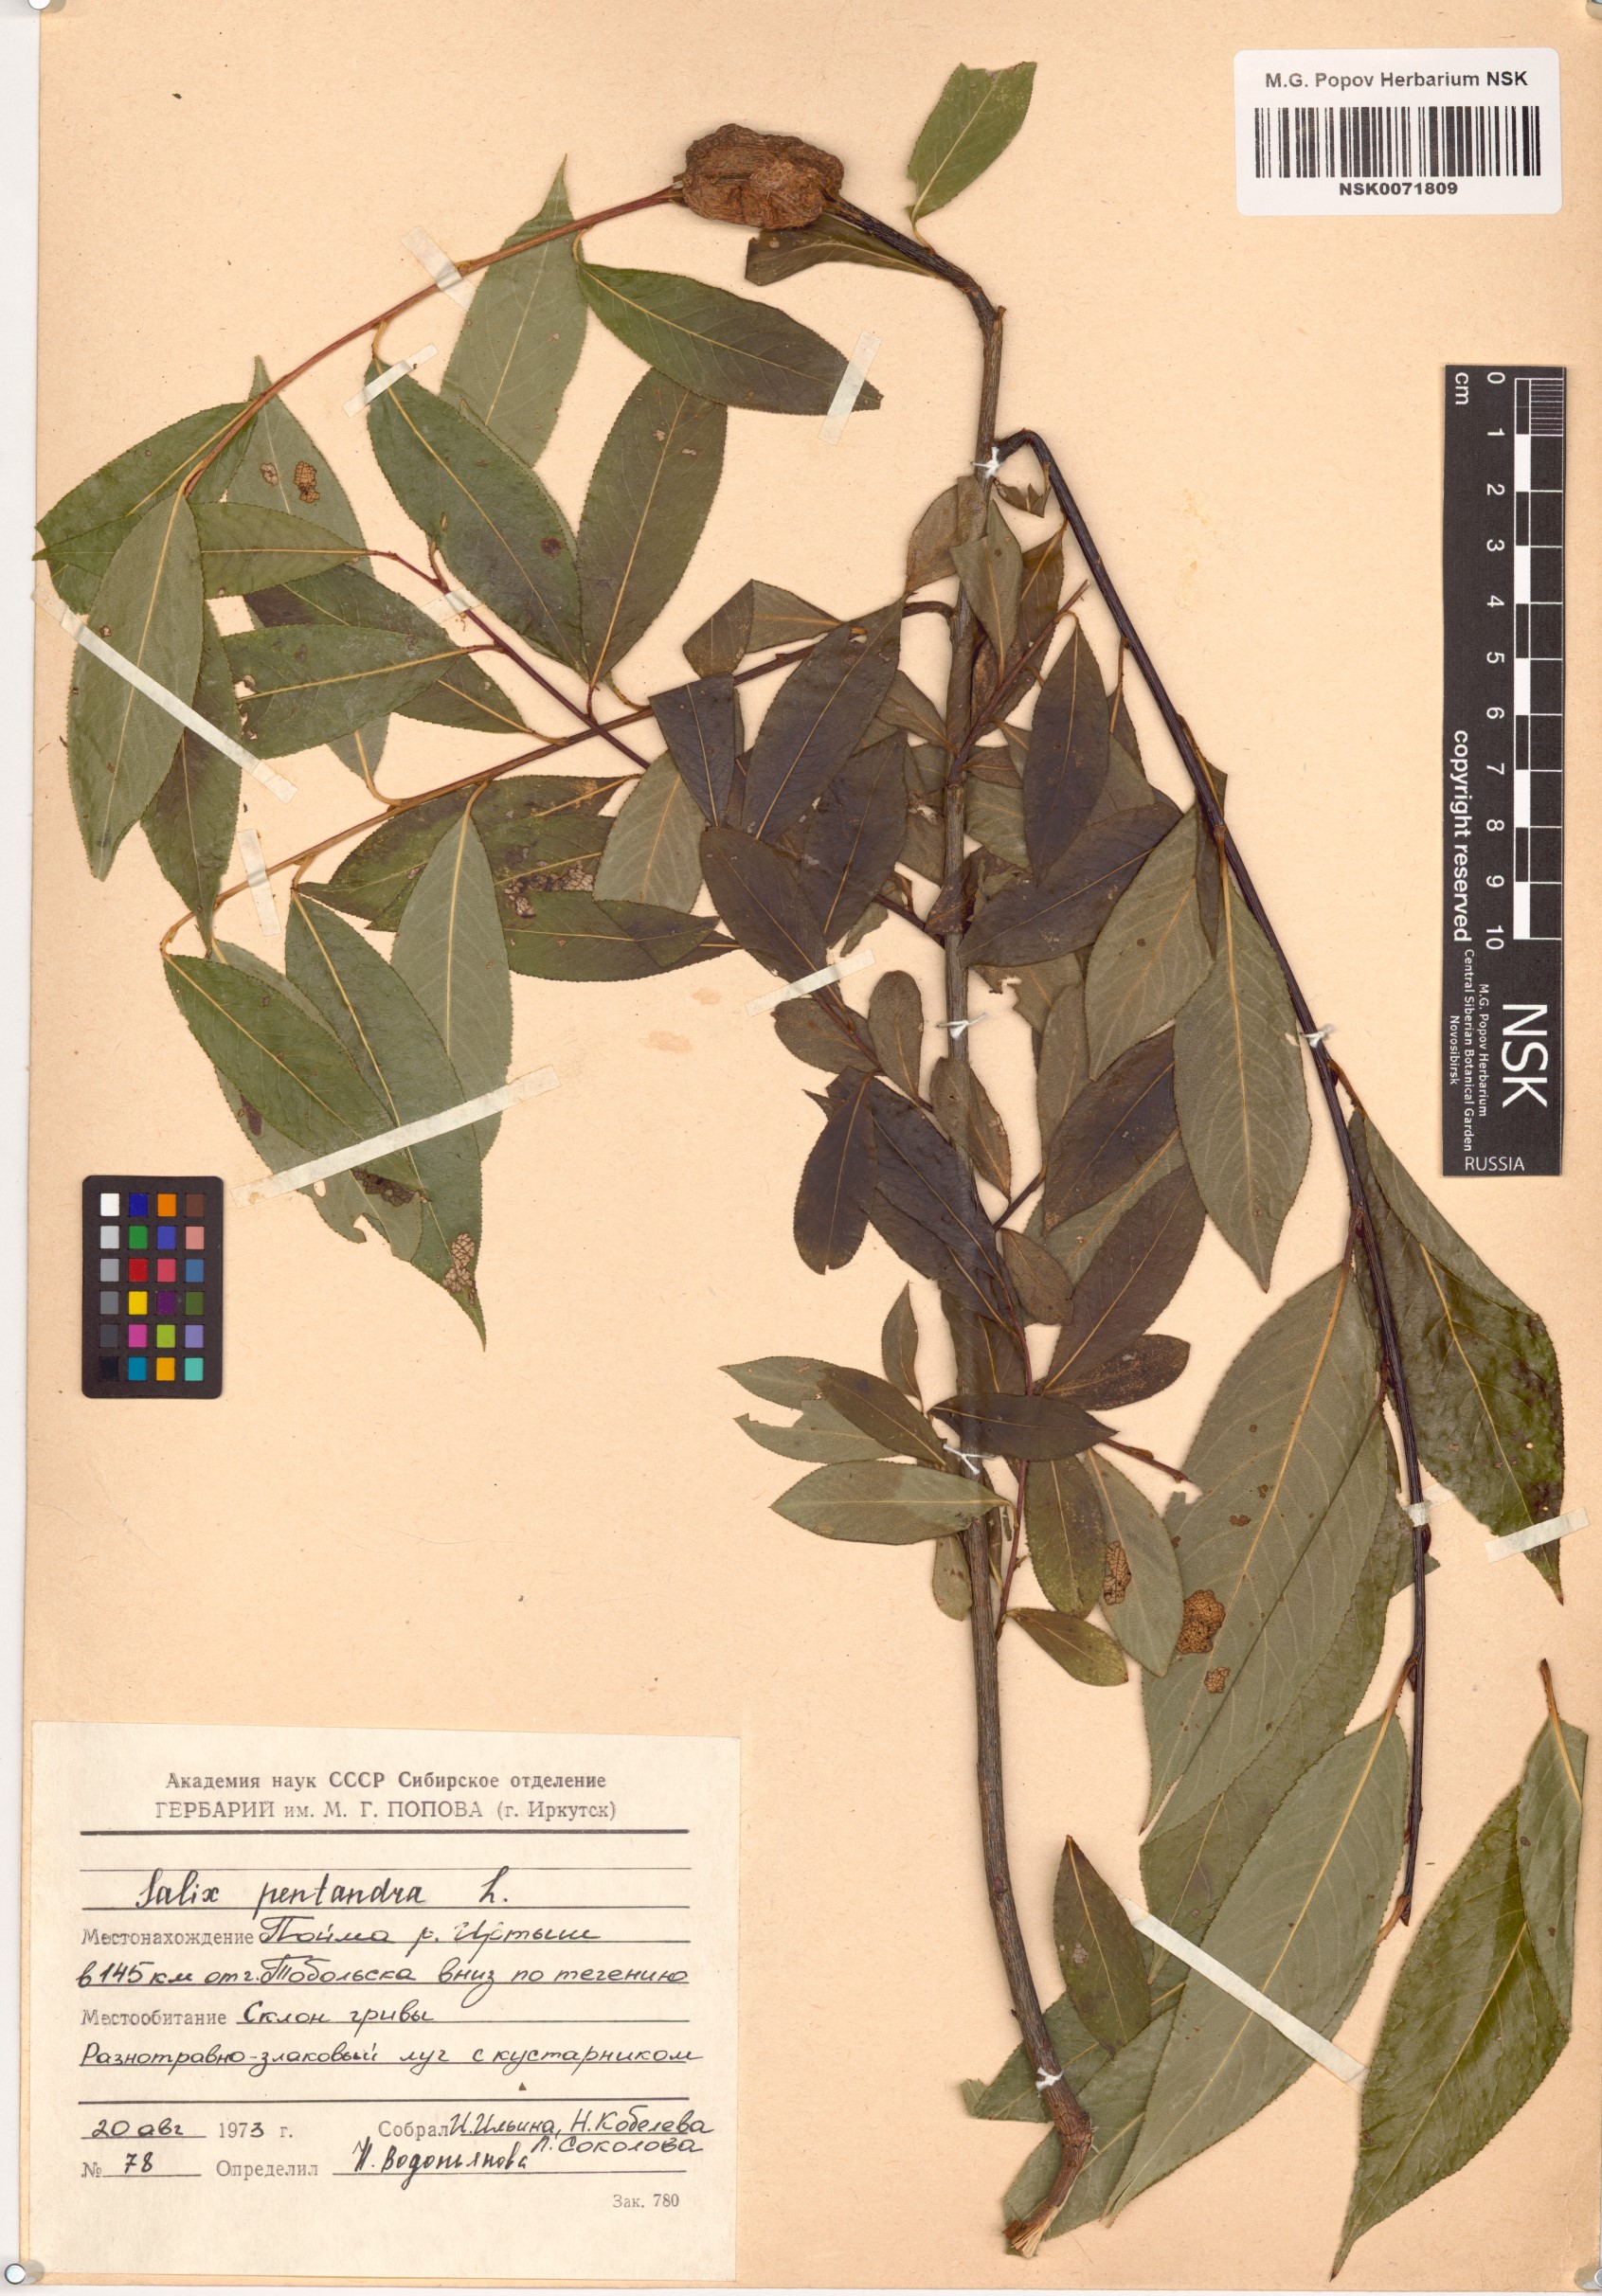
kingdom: Plantae
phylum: Tracheophyta
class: Magnoliopsida
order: Malpighiales
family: Salicaceae
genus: Salix
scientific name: Salix pentandra
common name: Bay willow
